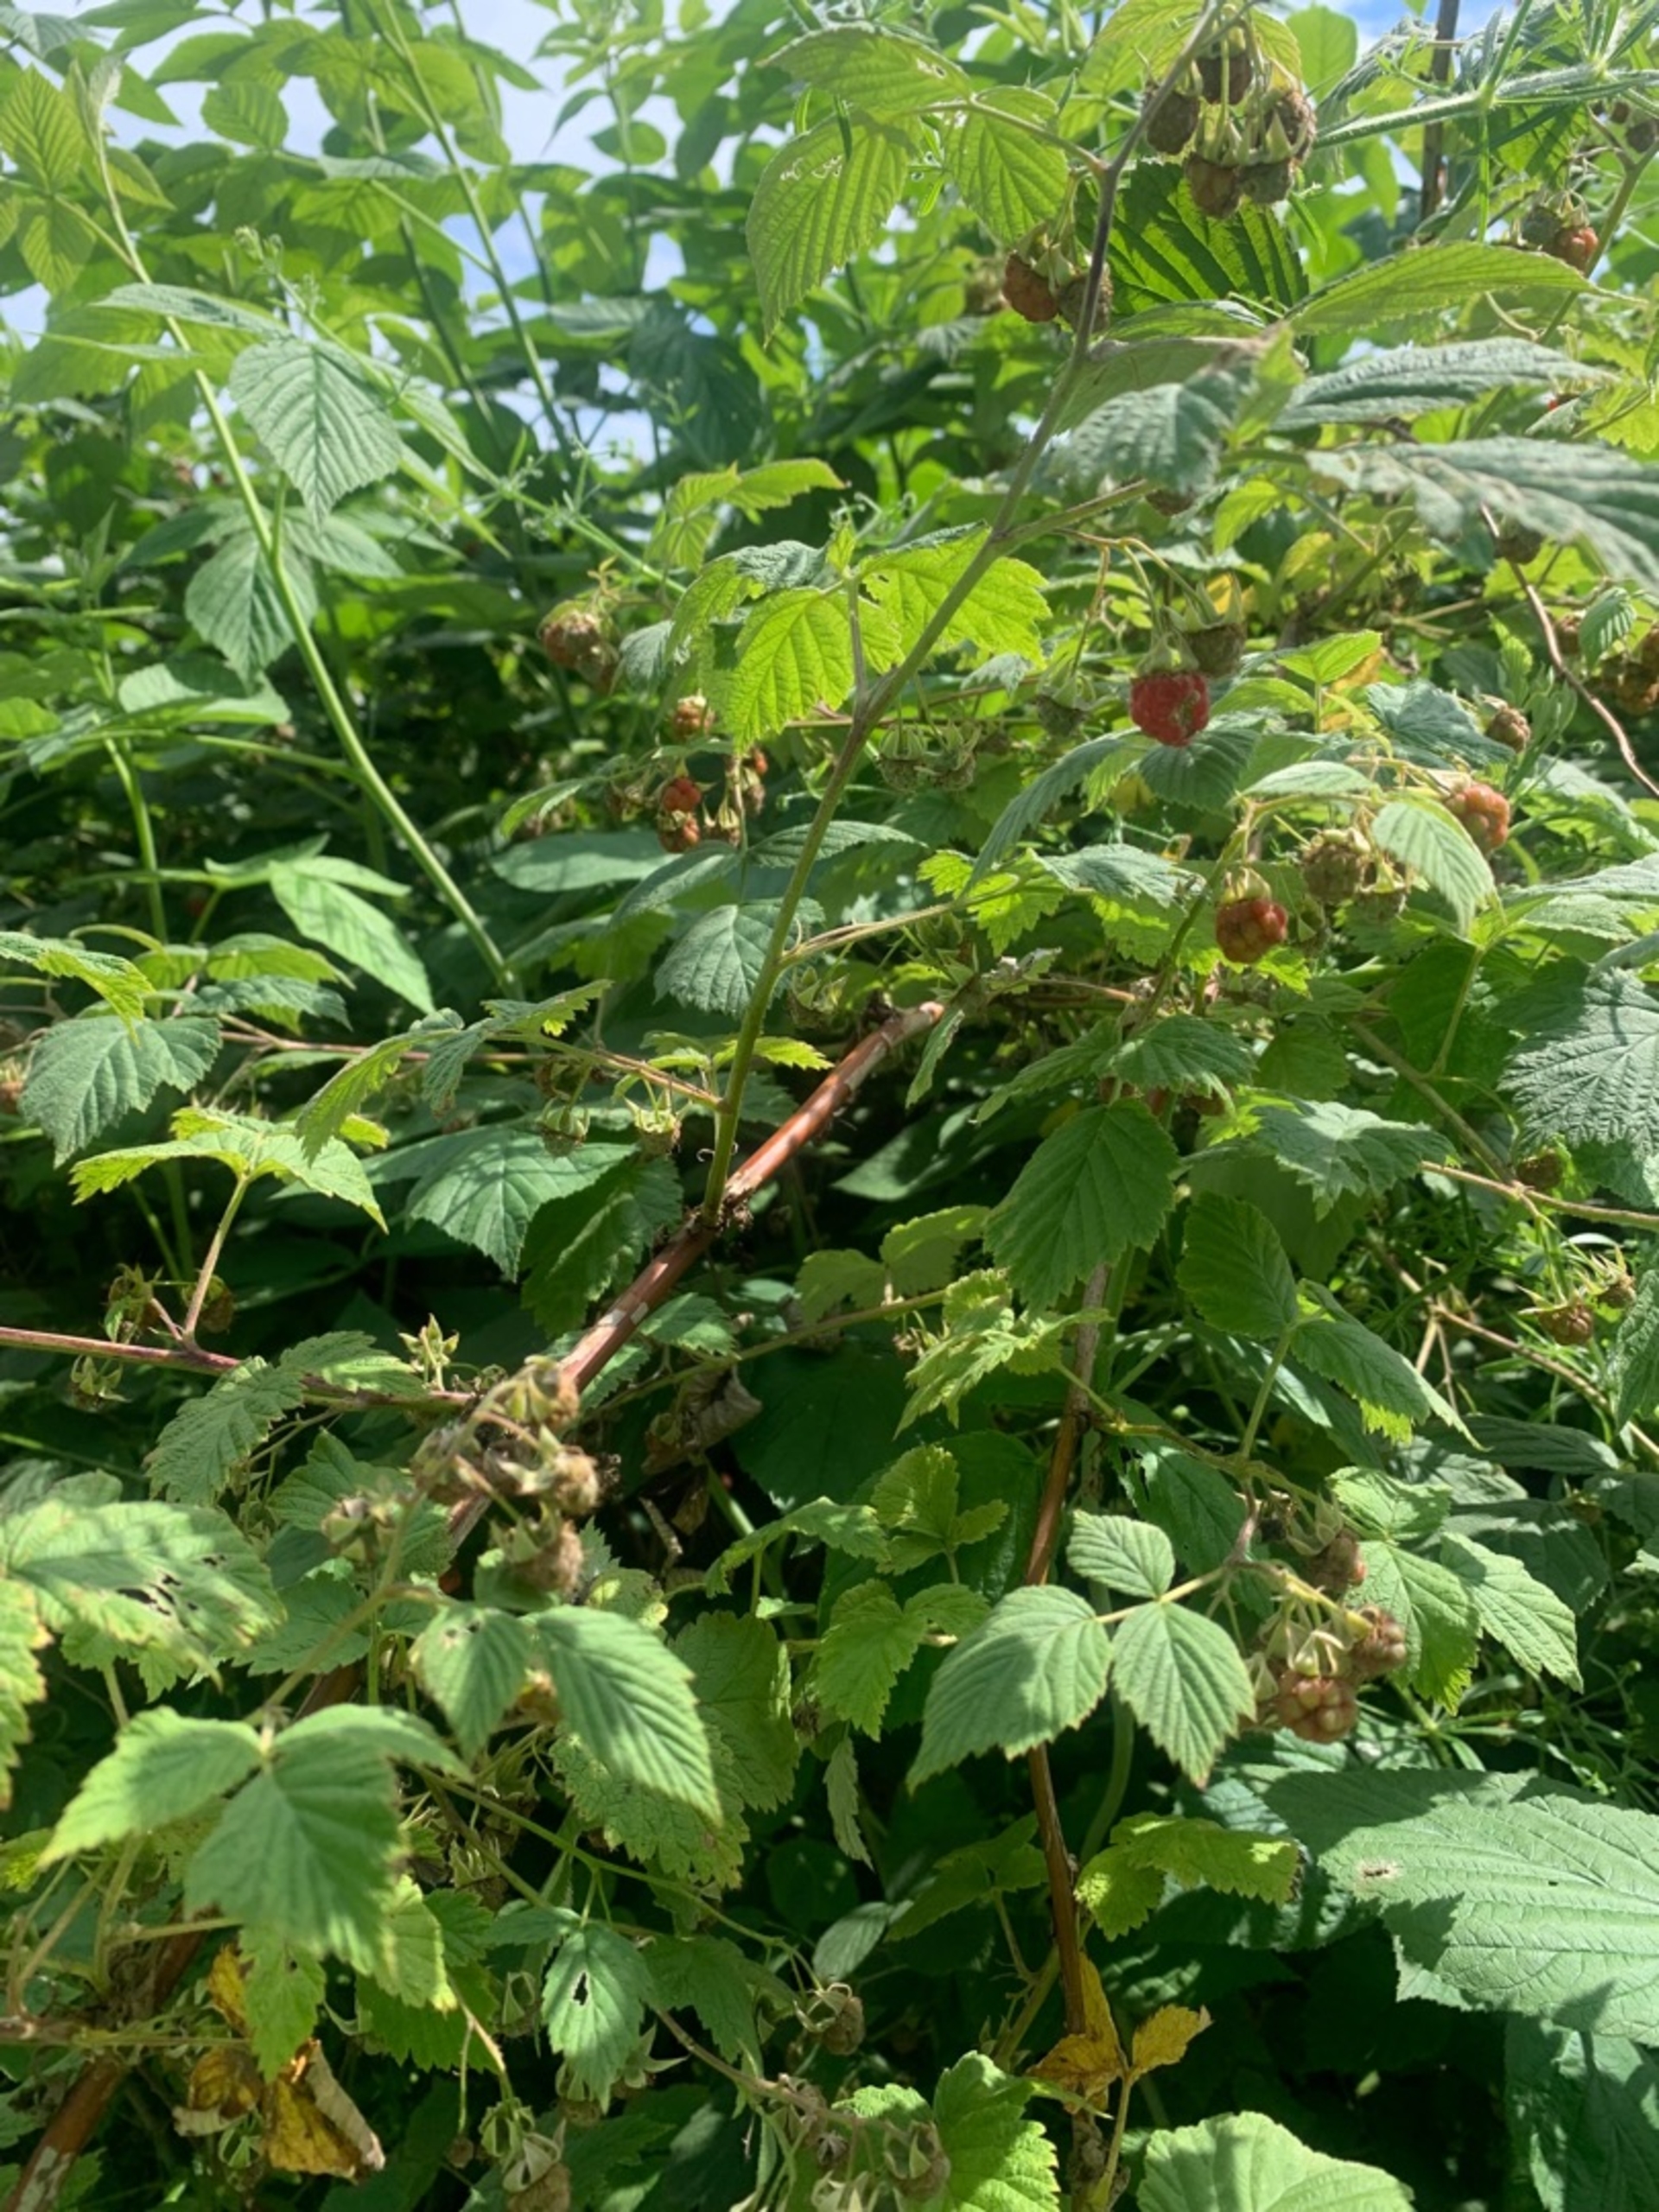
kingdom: Plantae
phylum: Tracheophyta
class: Magnoliopsida
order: Rosales
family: Rosaceae
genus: Rubus
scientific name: Rubus idaeus
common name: Hindbær
